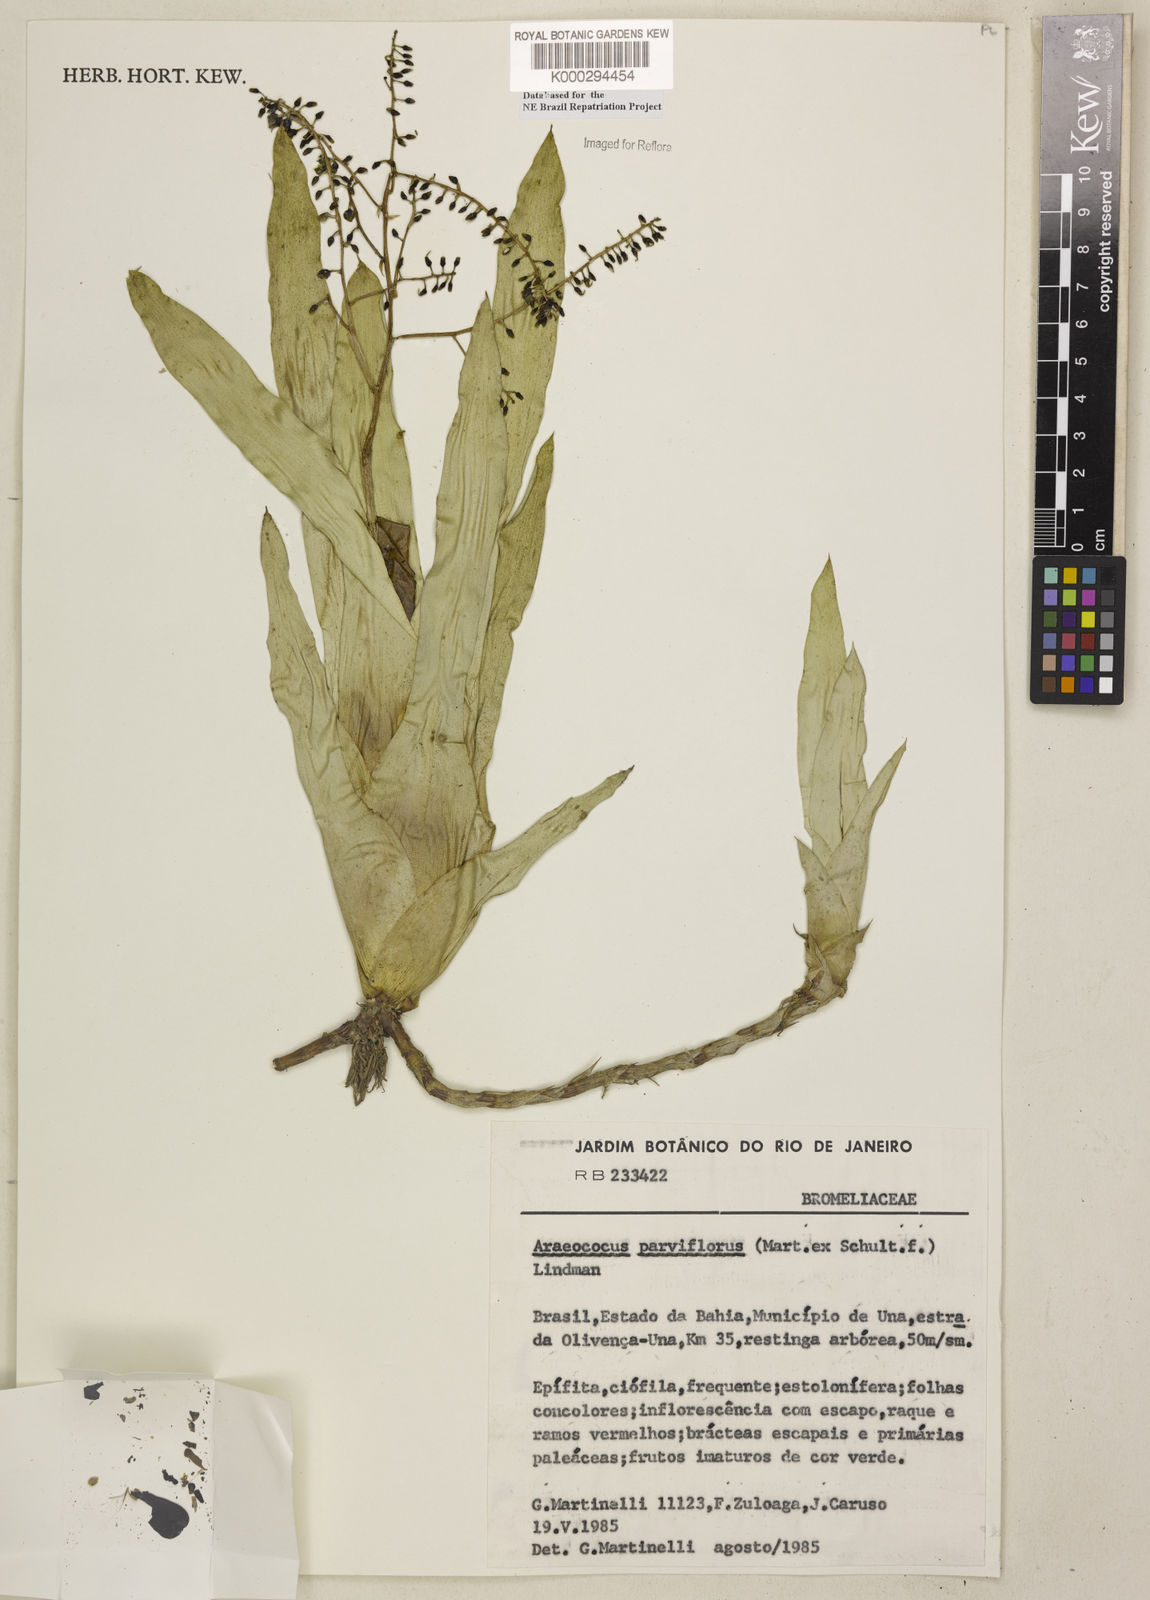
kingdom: Plantae
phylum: Tracheophyta
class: Liliopsida
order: Poales
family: Bromeliaceae
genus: Pseudaraeococcus
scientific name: Pseudaraeococcus parviflorus
